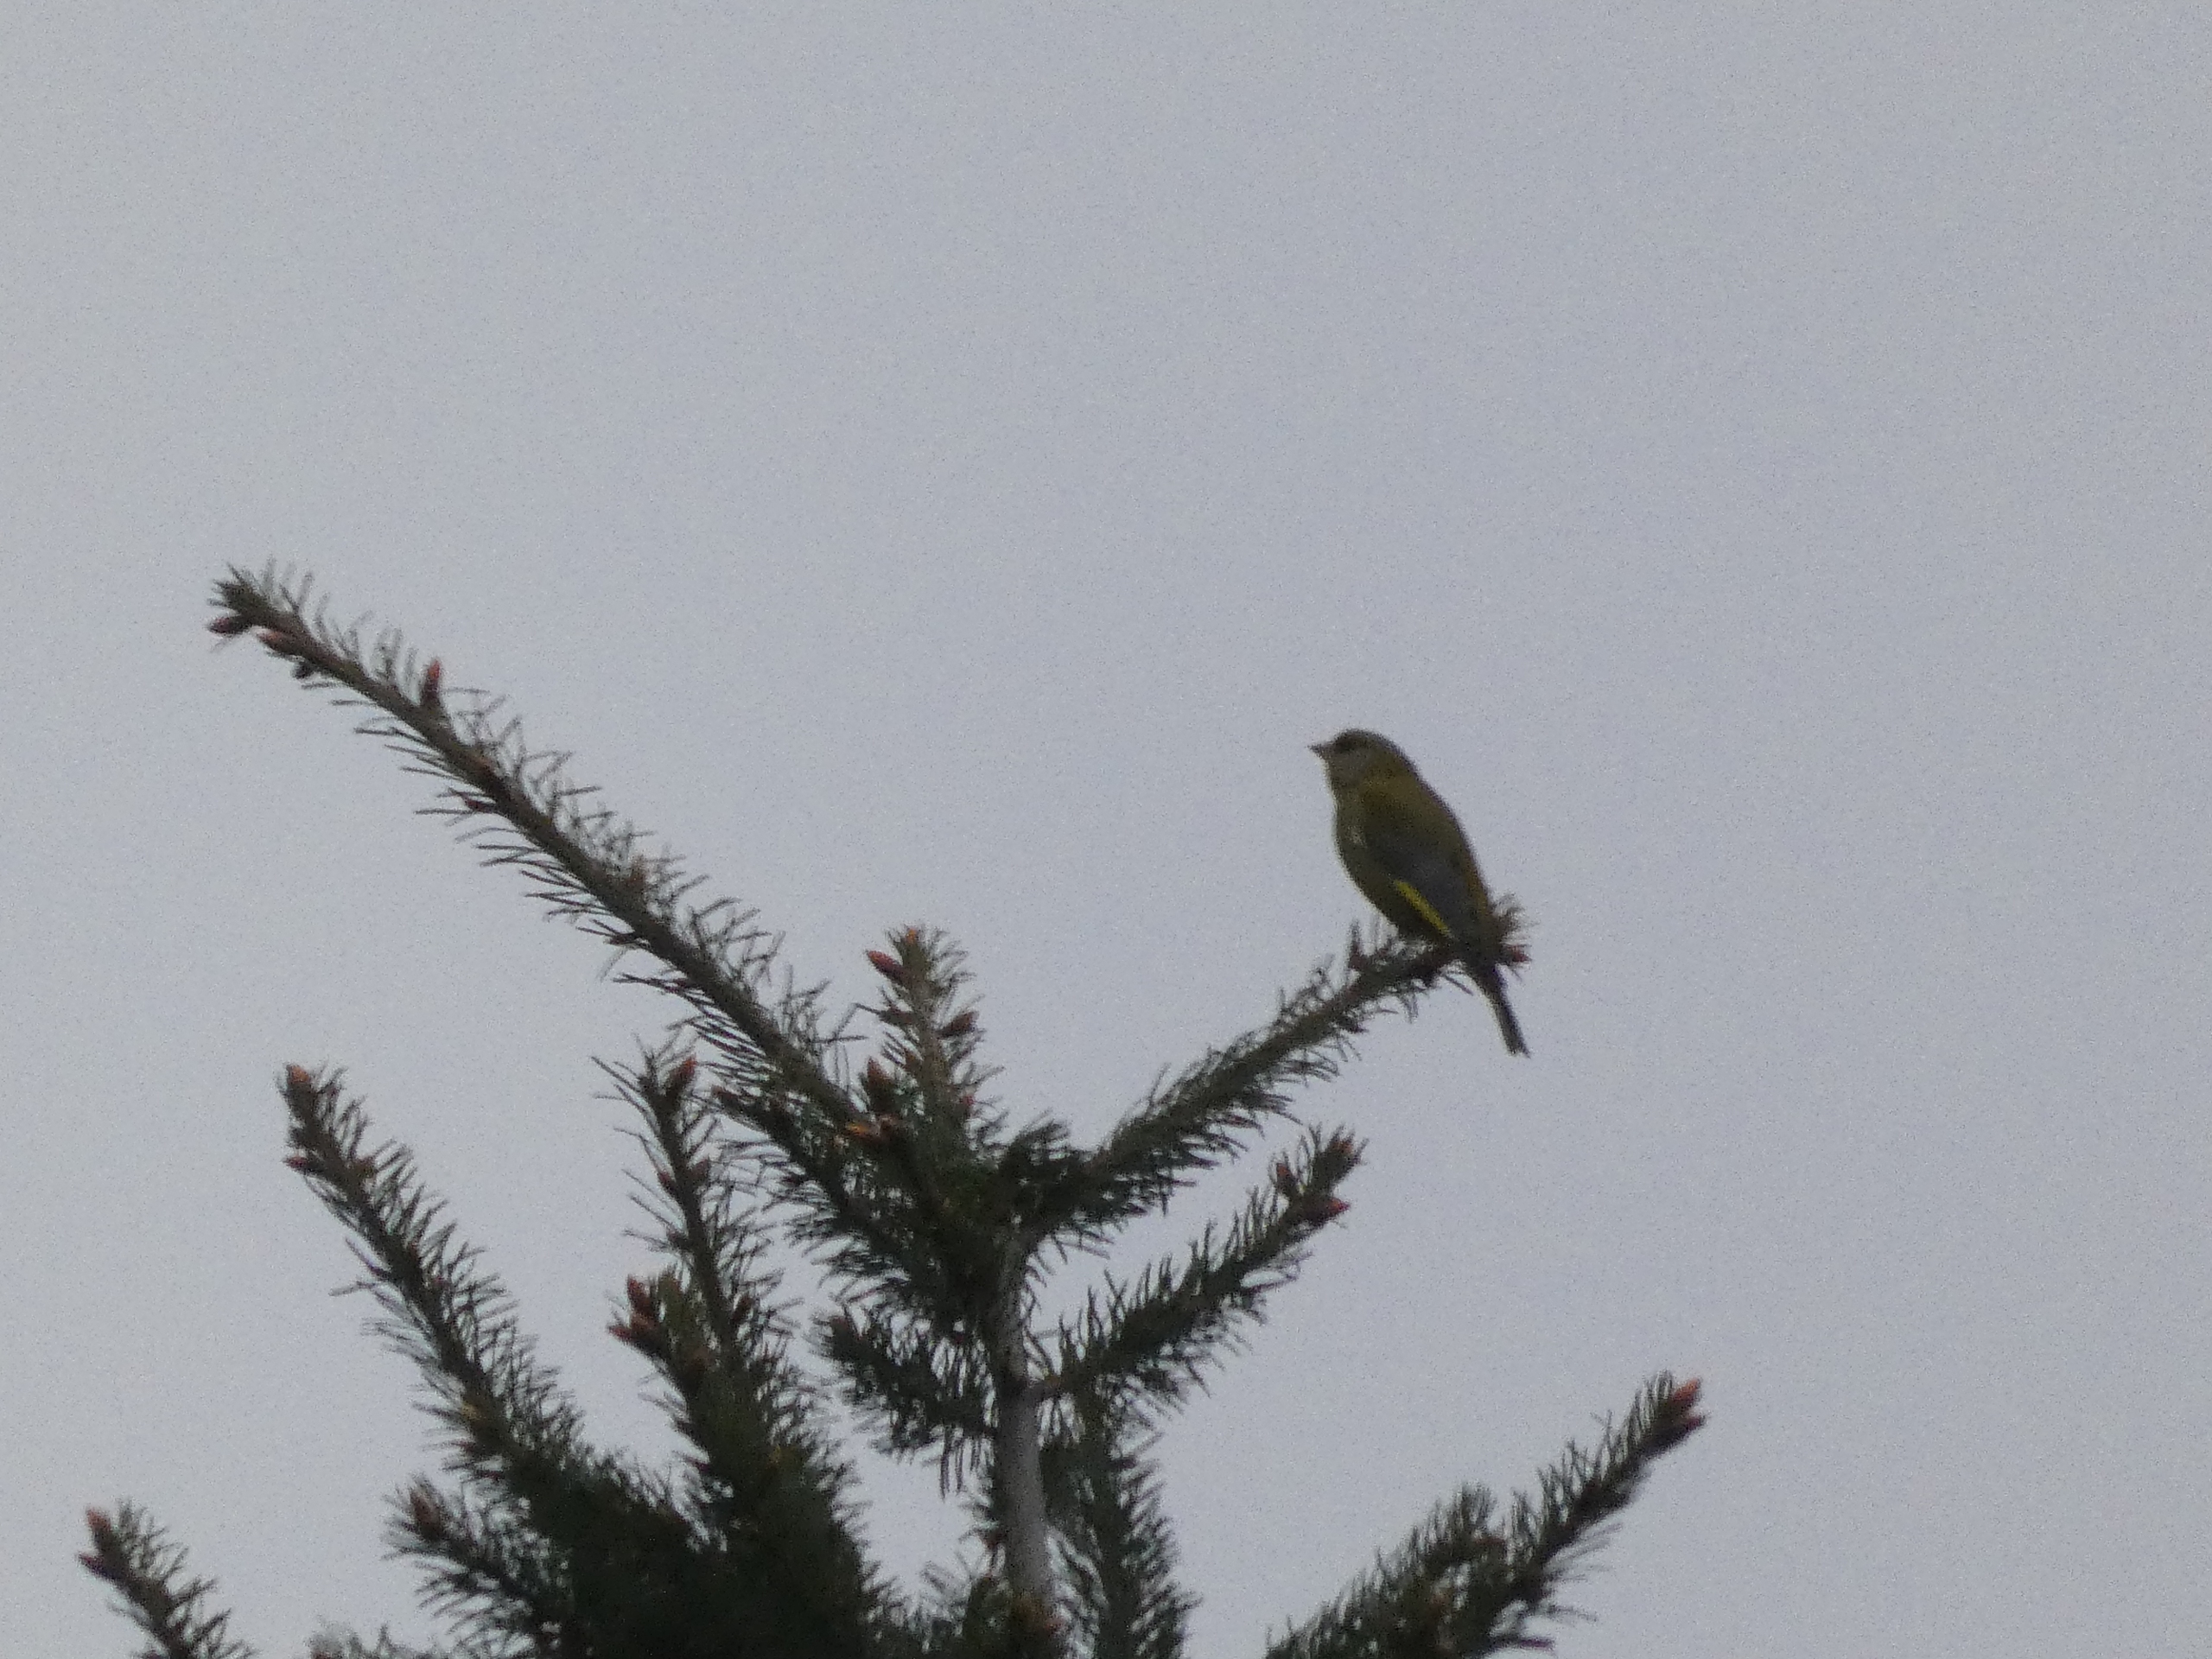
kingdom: Plantae
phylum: Tracheophyta
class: Liliopsida
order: Poales
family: Poaceae
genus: Chloris
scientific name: Chloris chloris
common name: Grønirisk
